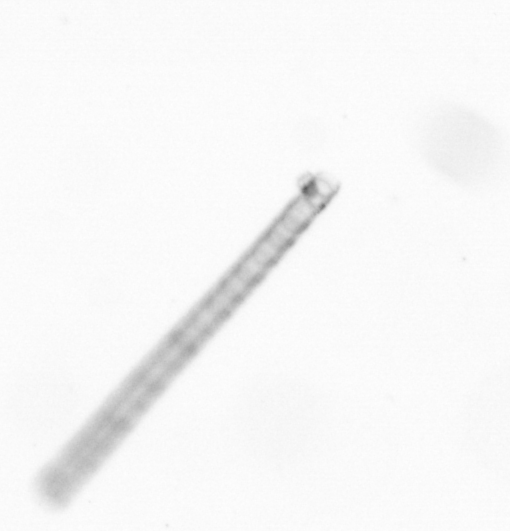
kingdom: Chromista
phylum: Ochrophyta
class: Bacillariophyceae
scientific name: Bacillariophyceae
